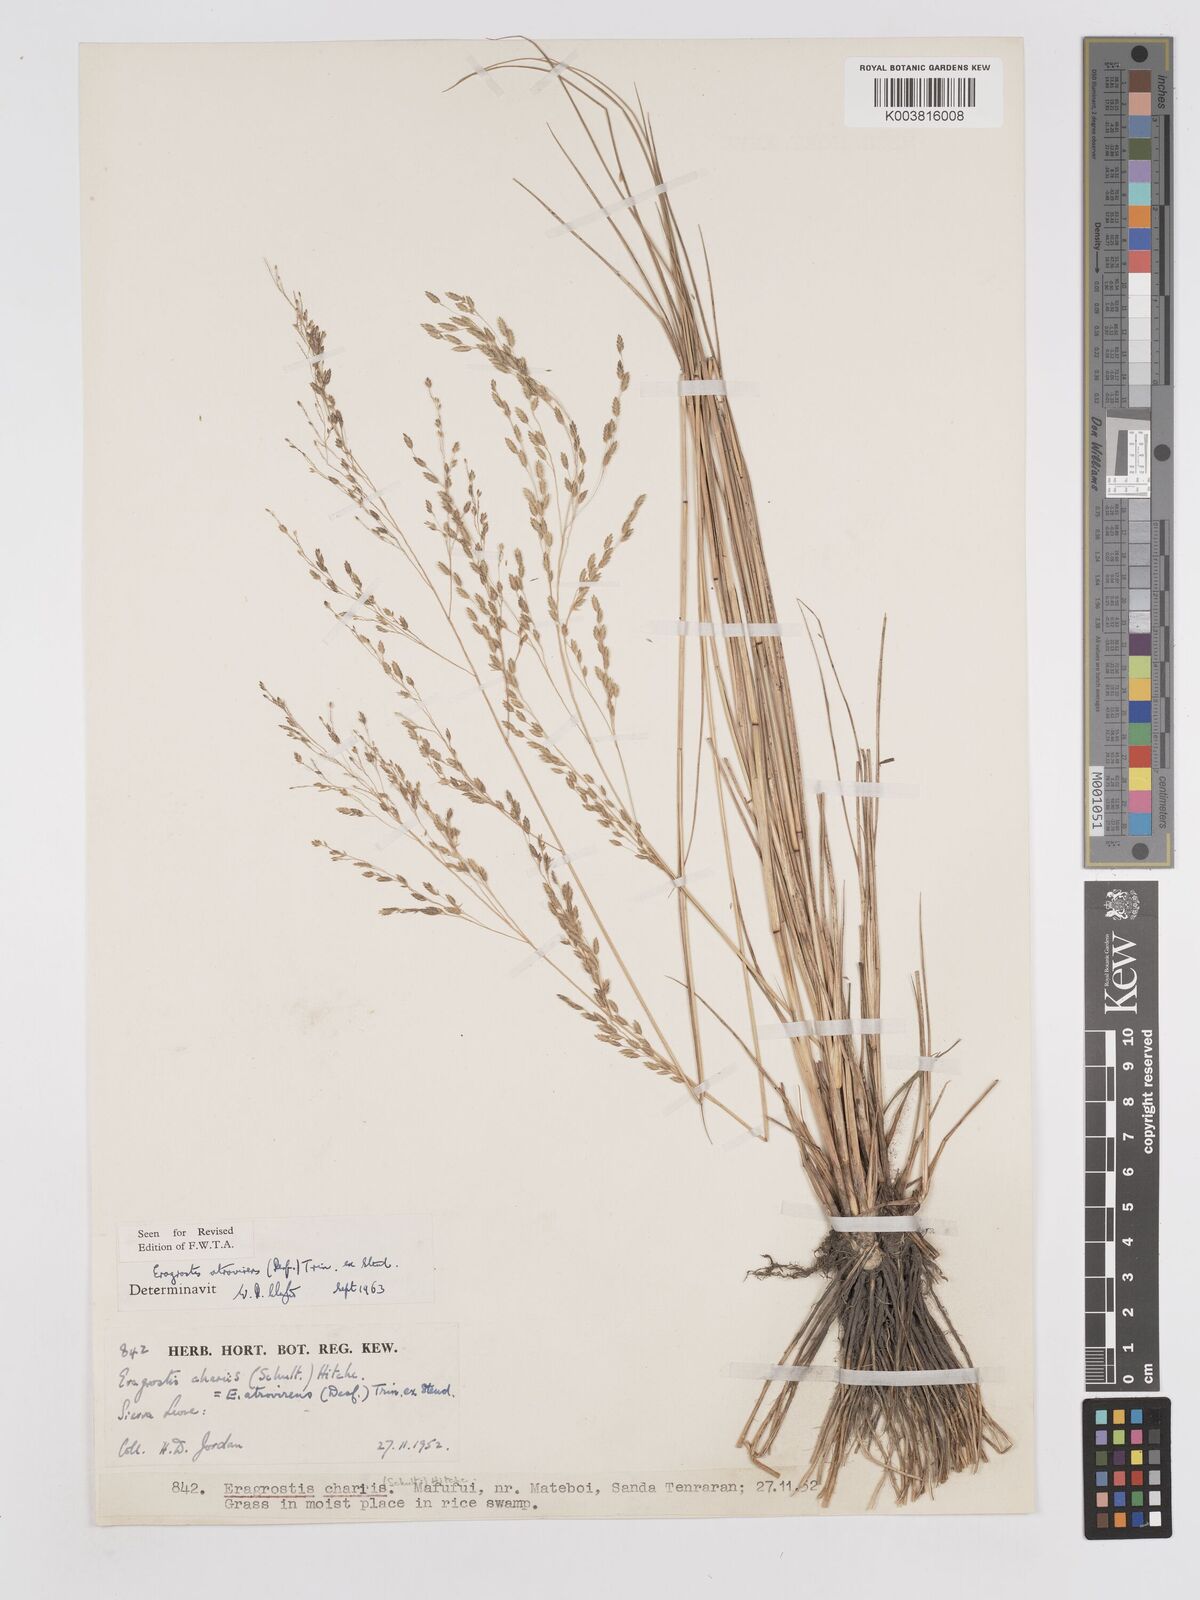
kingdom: Plantae
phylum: Tracheophyta
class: Liliopsida
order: Poales
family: Poaceae
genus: Eragrostis
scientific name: Eragrostis atrovirens
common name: Thalia lovegrass
